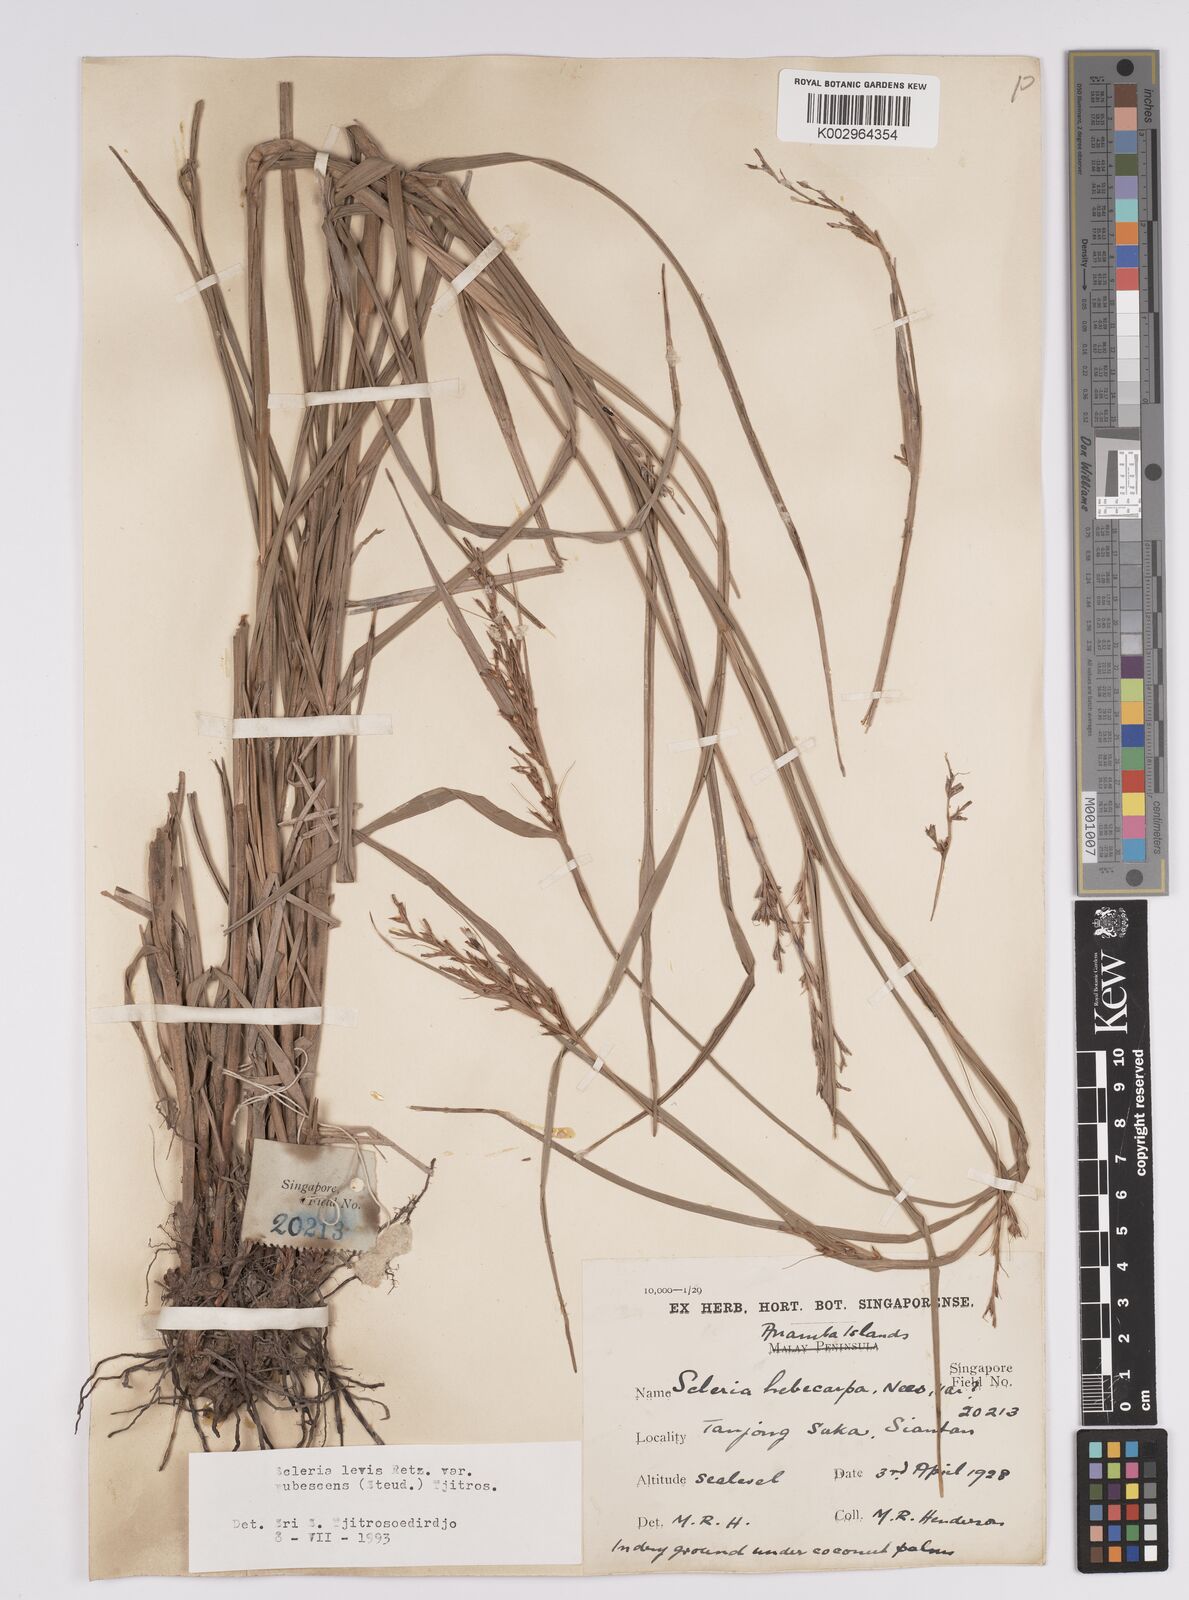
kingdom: Plantae
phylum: Tracheophyta
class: Liliopsida
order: Poales
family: Cyperaceae
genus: Scleria
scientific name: Scleria levis
